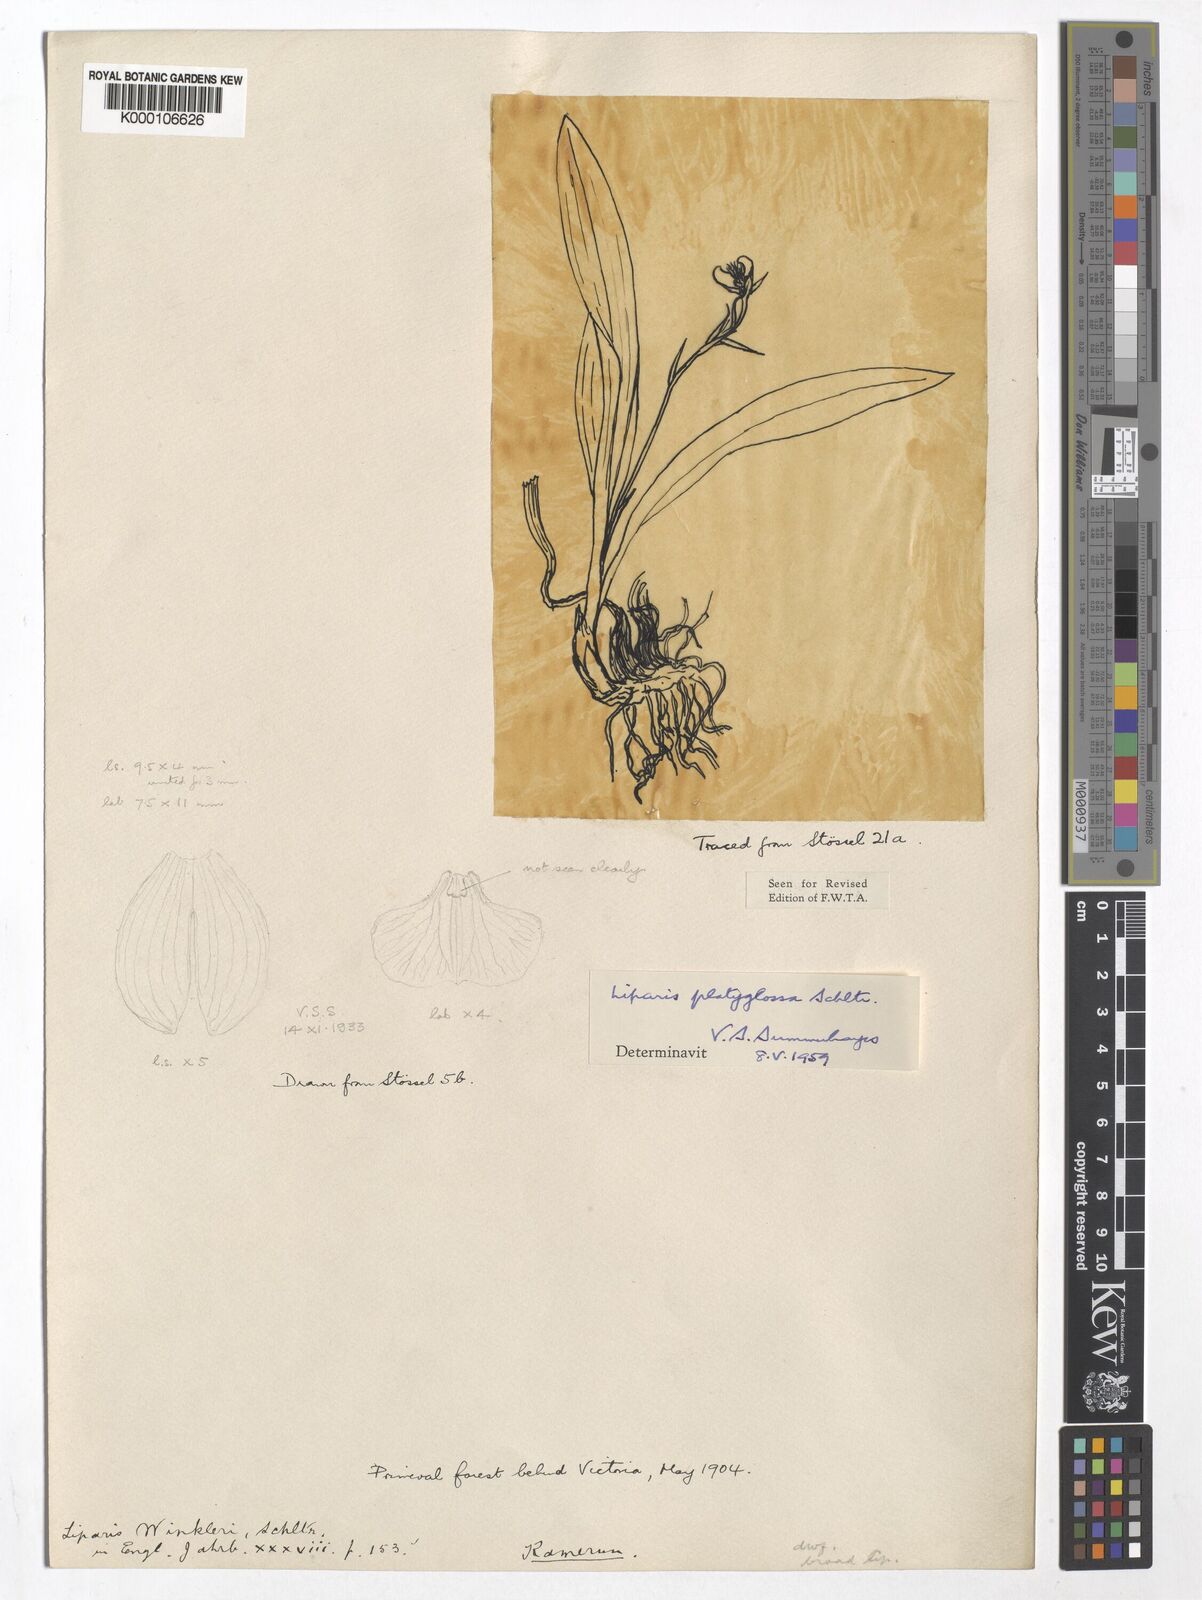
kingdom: Plantae
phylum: Tracheophyta
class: Liliopsida
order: Asparagales
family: Orchidaceae
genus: Liparis
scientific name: Liparis platyglossa
